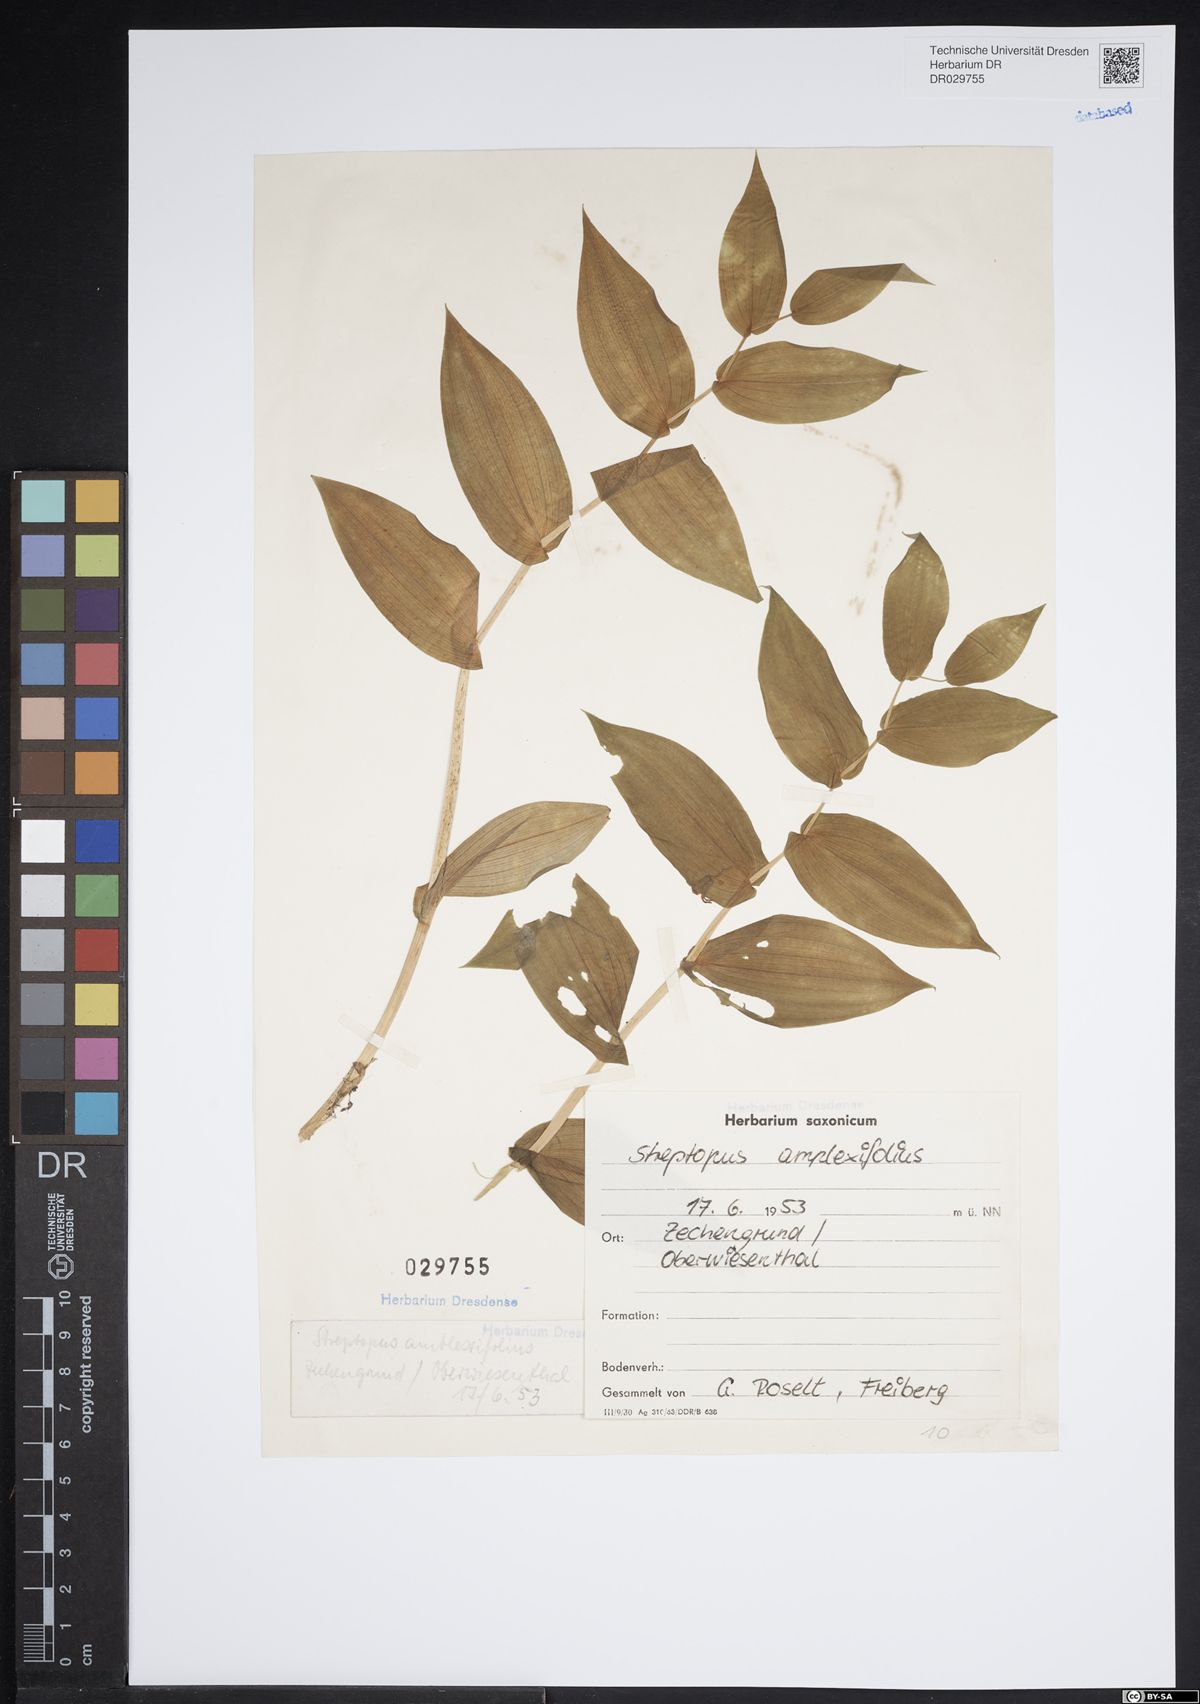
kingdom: Plantae
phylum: Tracheophyta
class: Liliopsida
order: Liliales
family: Liliaceae
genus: Streptopus
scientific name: Streptopus amplexifolius
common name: Clasp twisted stalk
